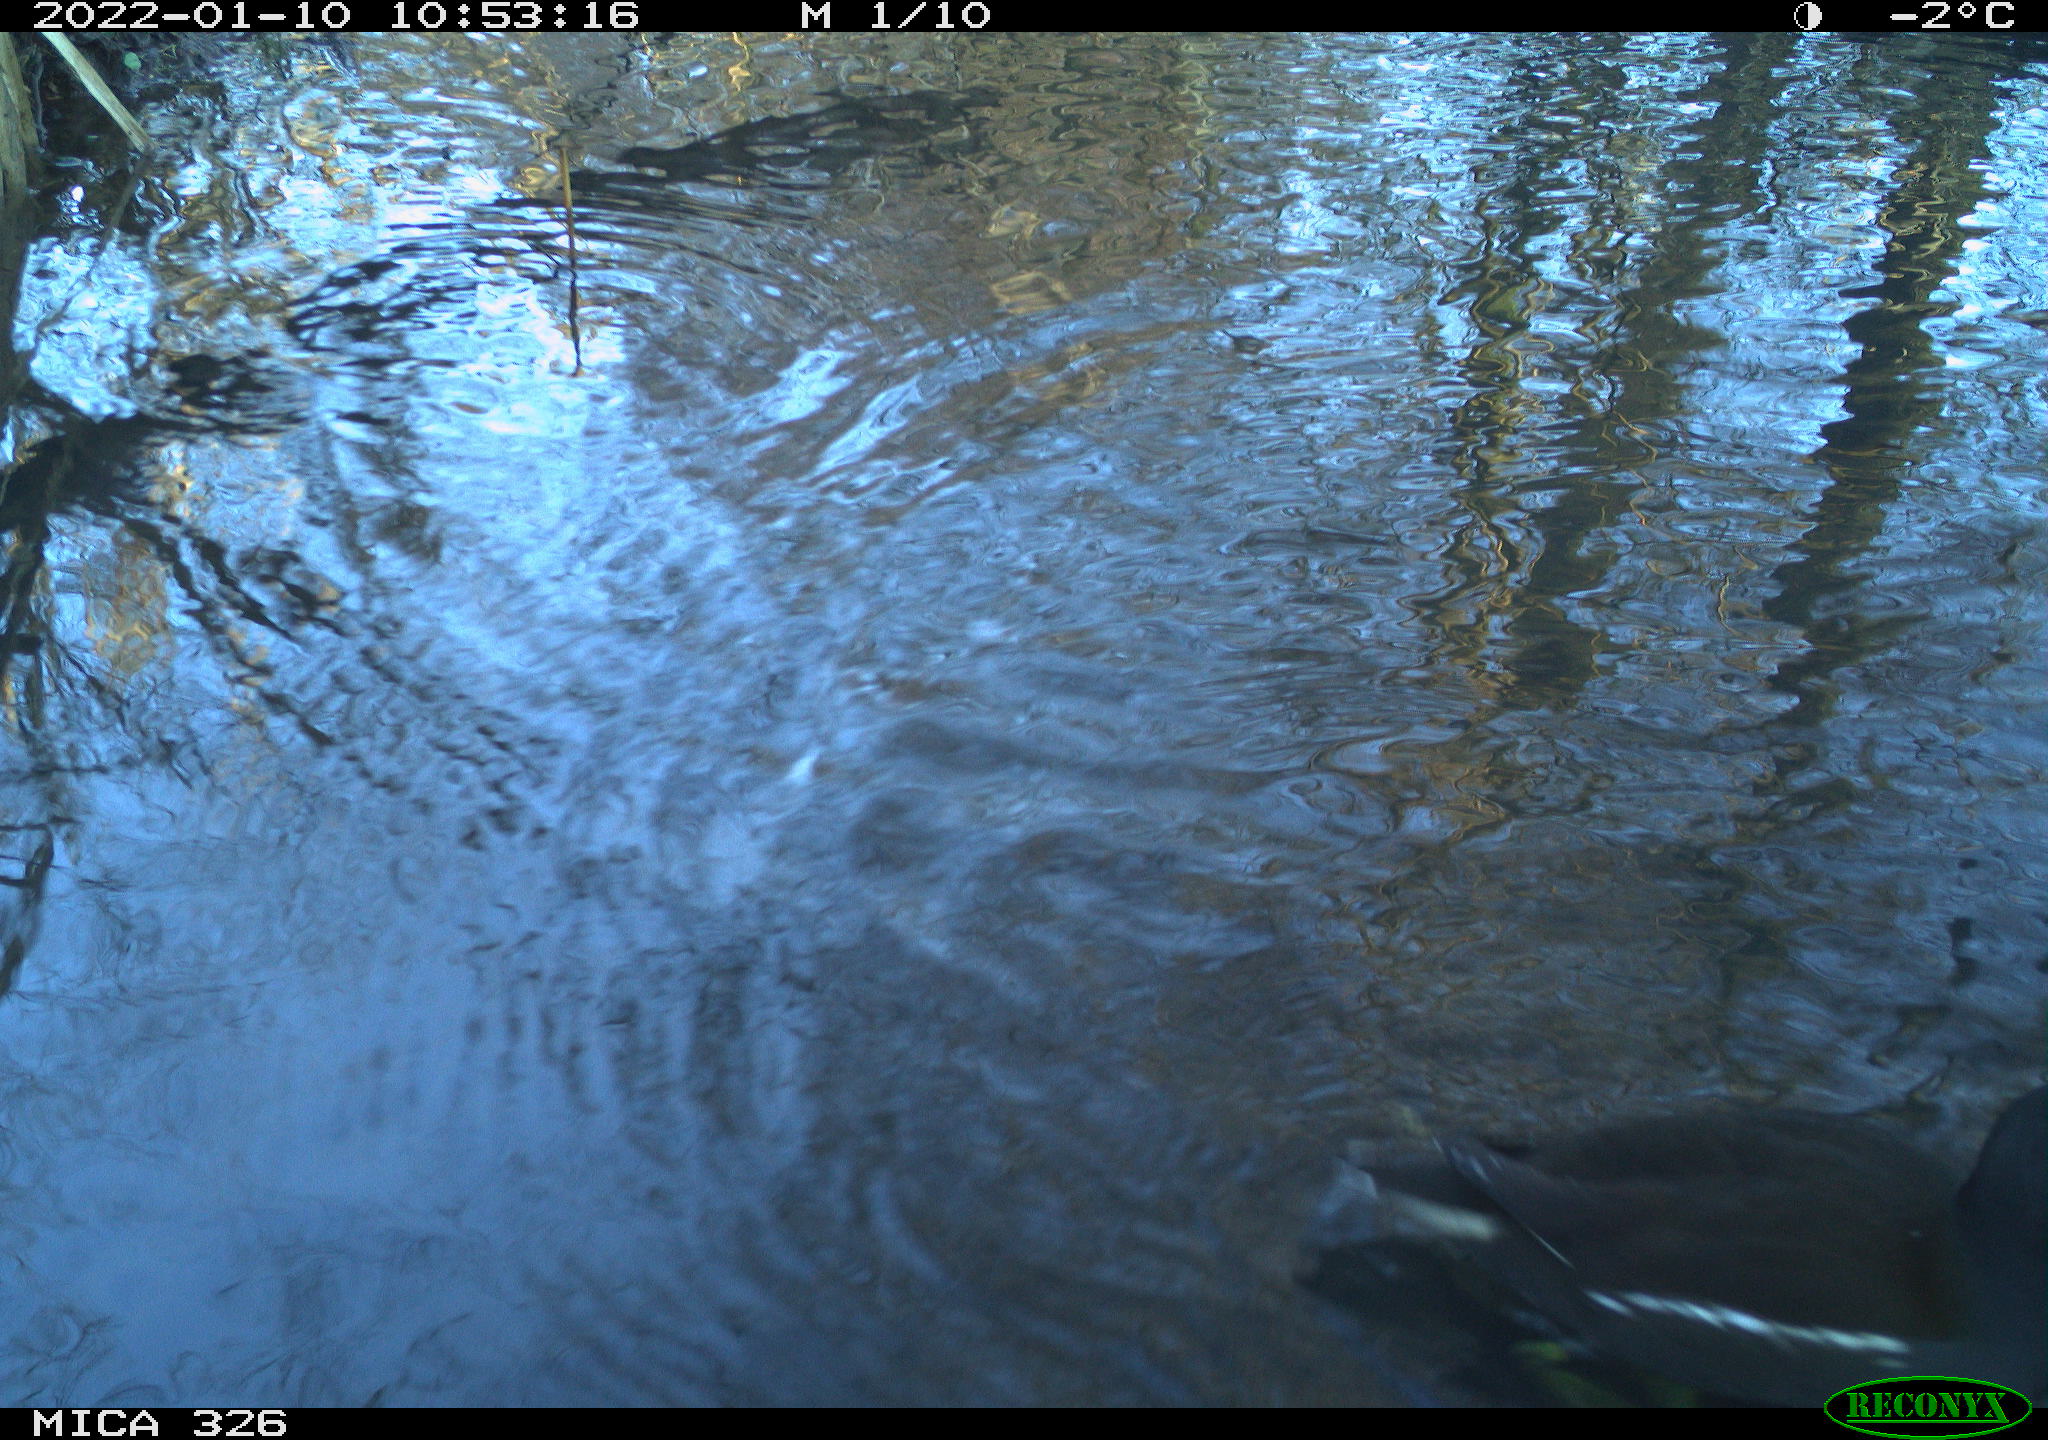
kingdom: Animalia
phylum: Chordata
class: Aves
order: Gruiformes
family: Rallidae
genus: Gallinula
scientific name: Gallinula chloropus
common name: Common moorhen
